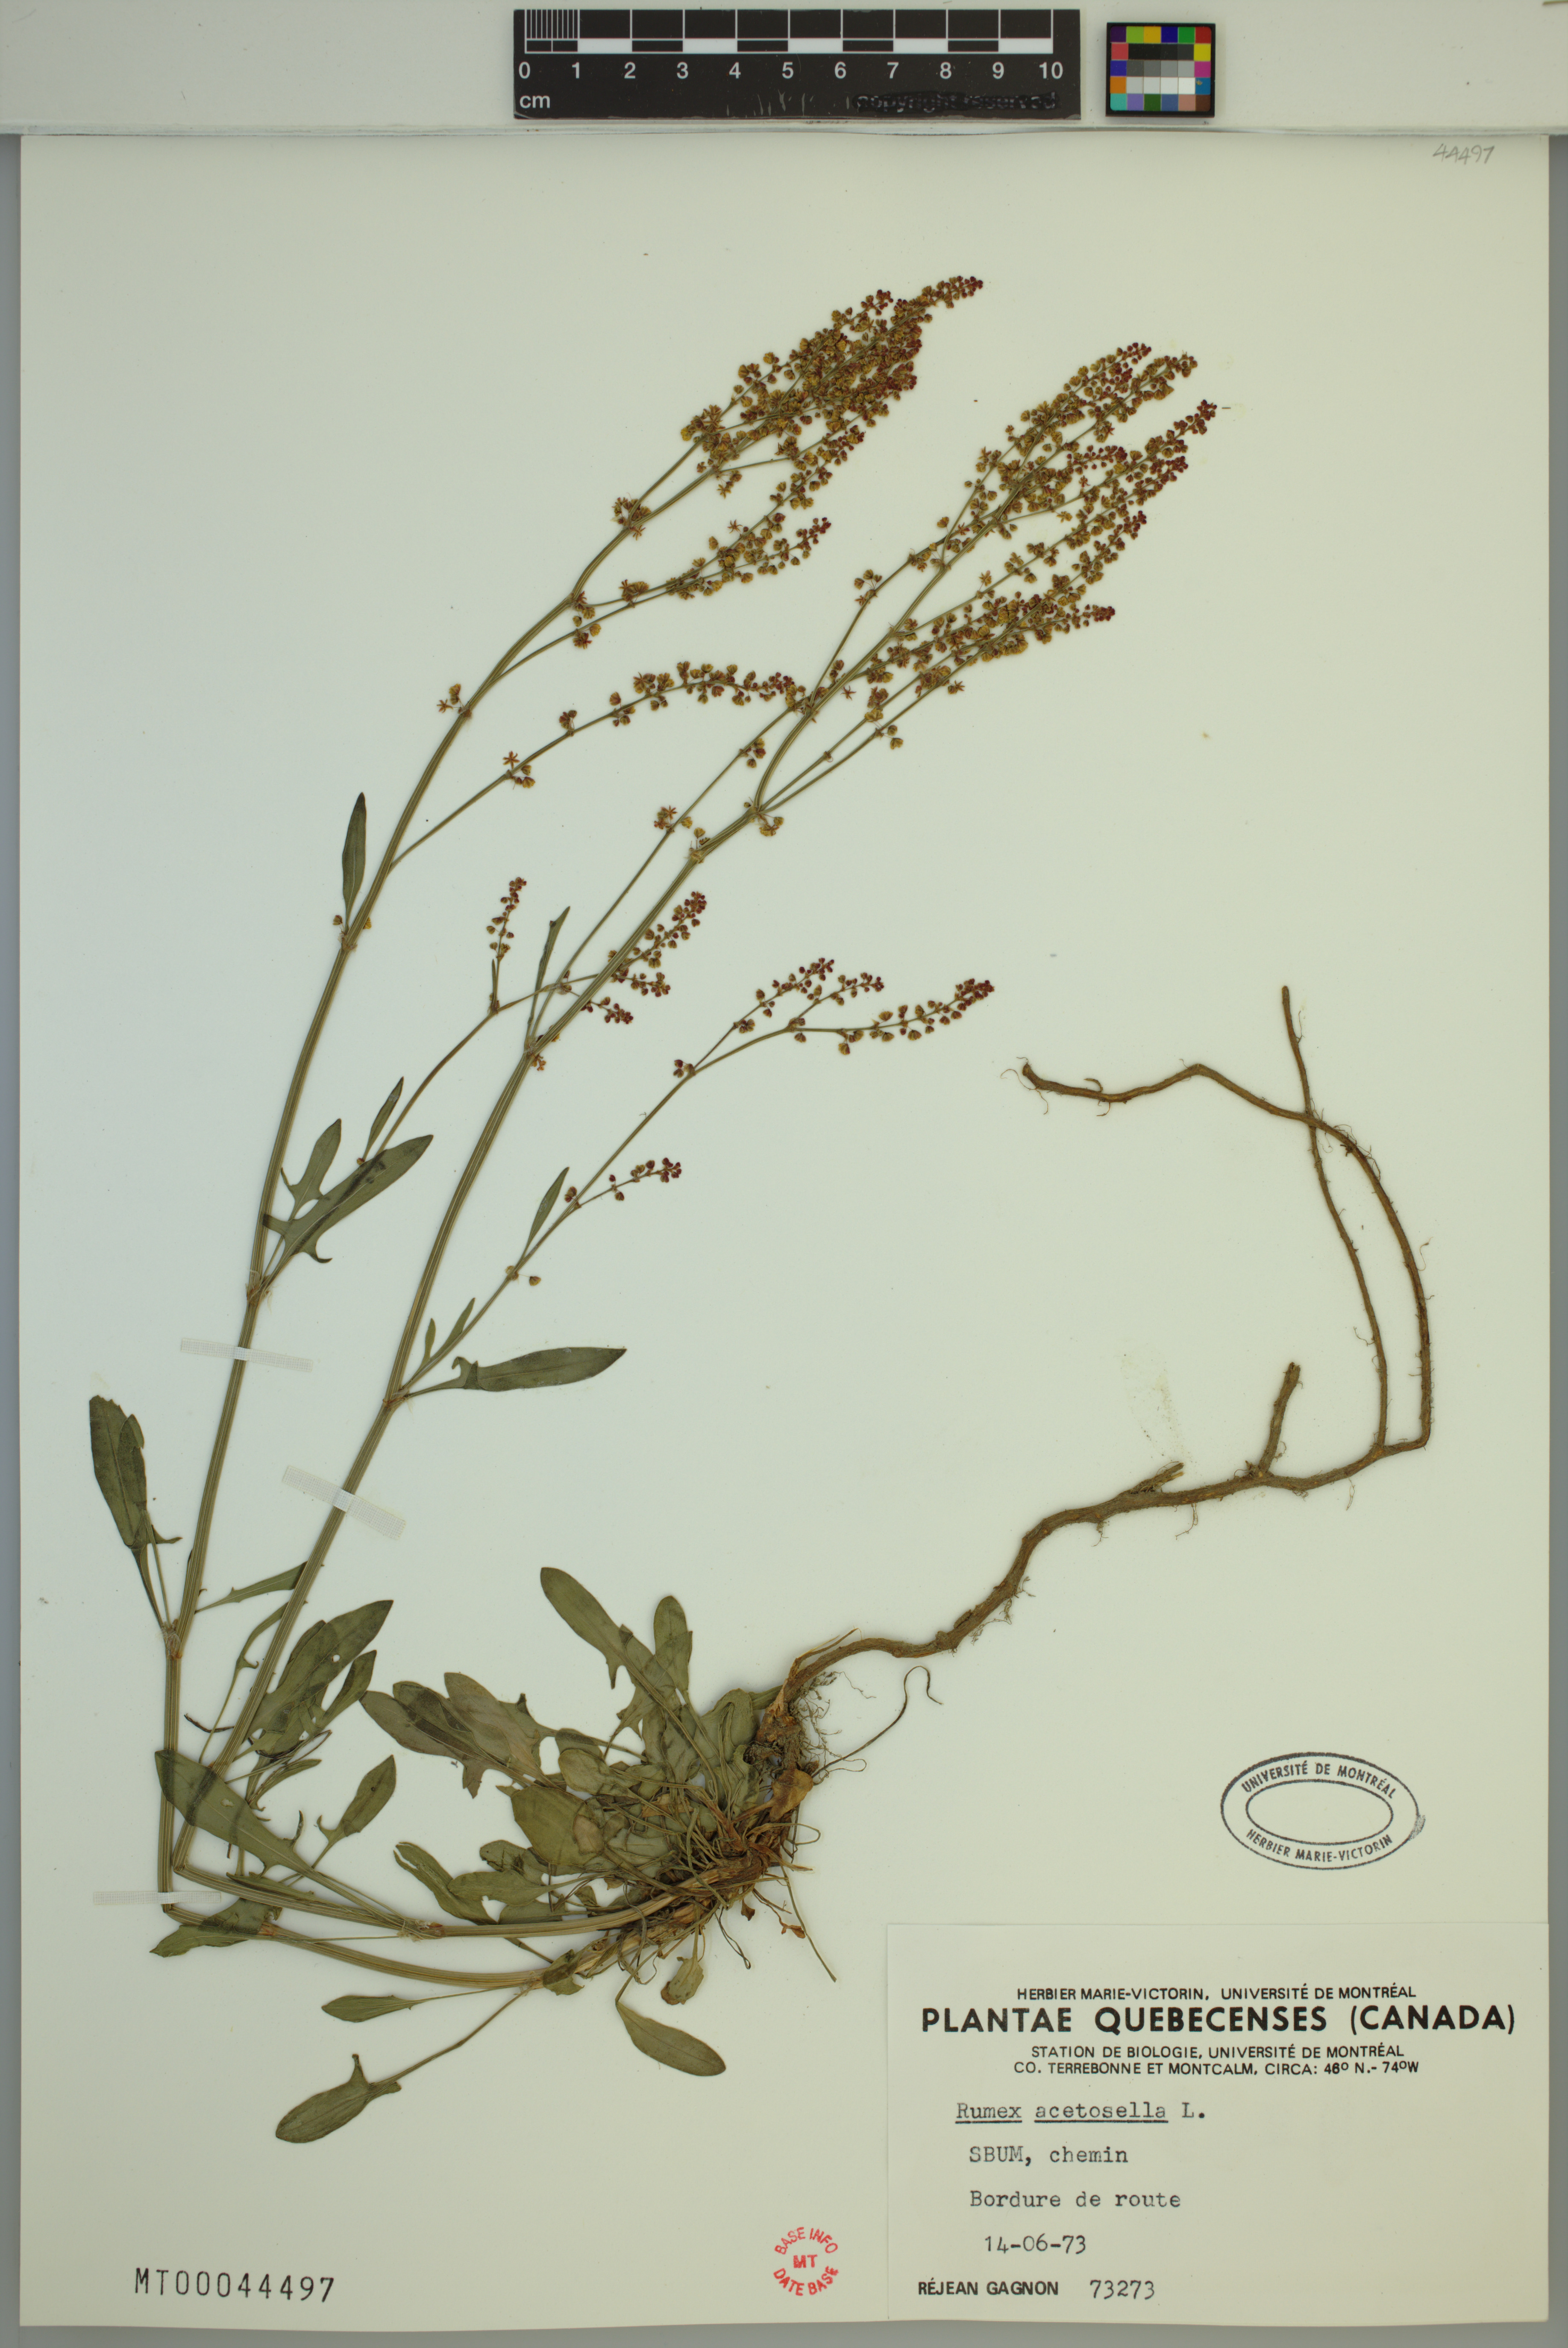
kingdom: Plantae
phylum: Tracheophyta
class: Magnoliopsida
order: Caryophyllales
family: Polygonaceae
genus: Rumex
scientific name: Rumex acetosella
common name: Common sheep sorrel
